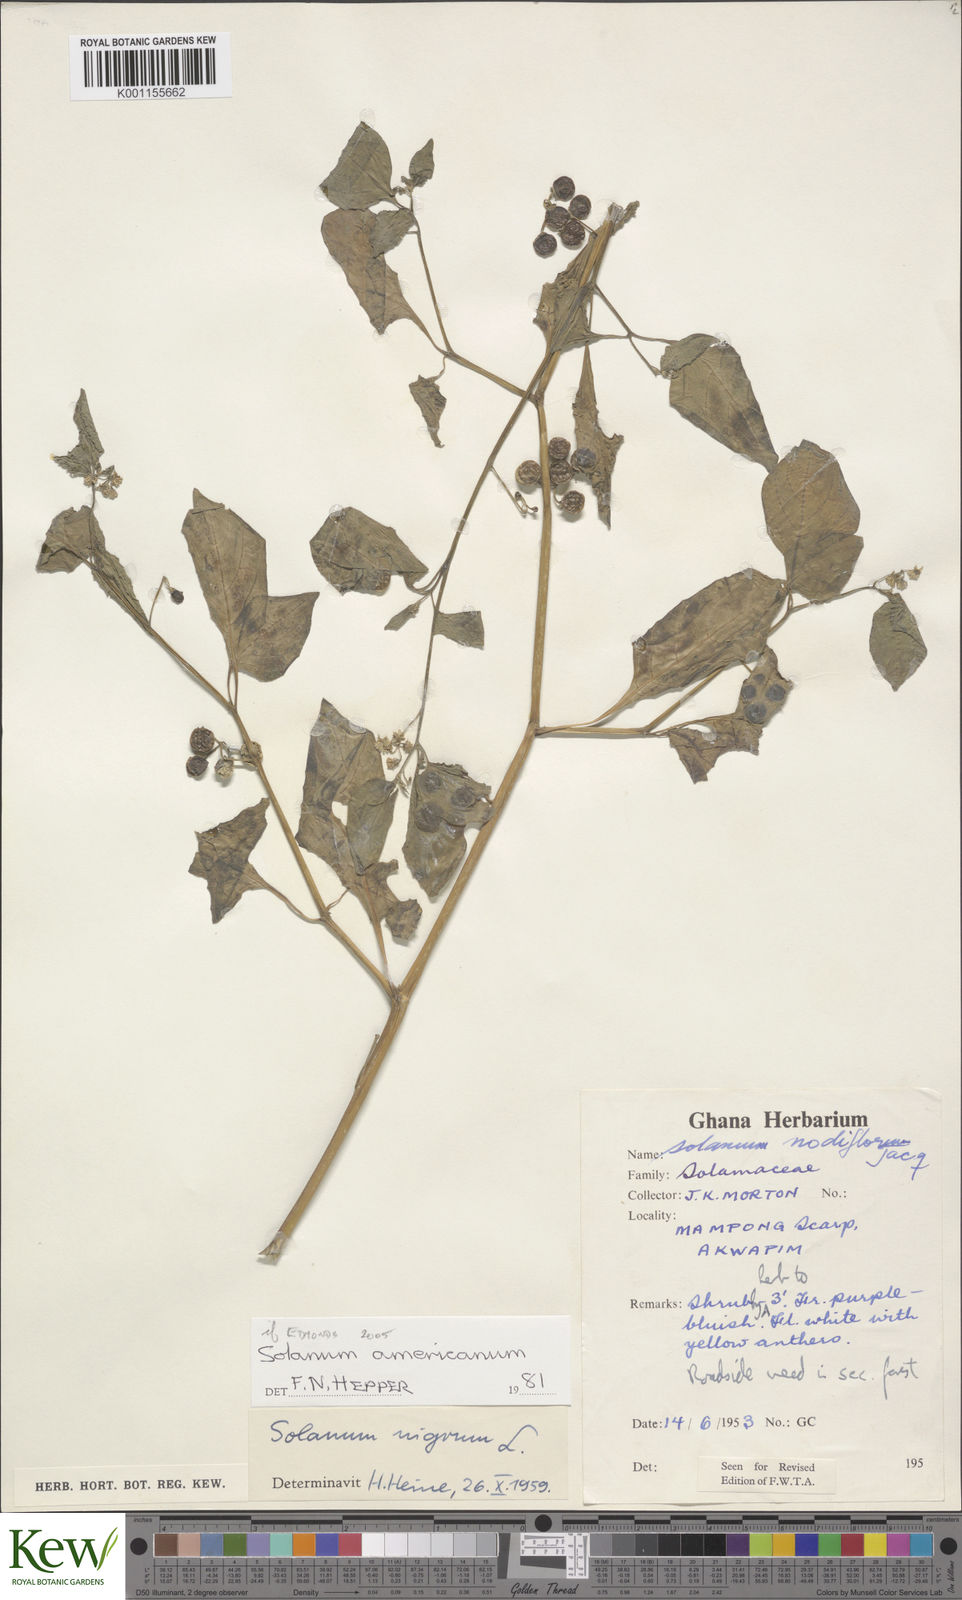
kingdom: Plantae
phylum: Tracheophyta
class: Magnoliopsida
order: Solanales
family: Solanaceae
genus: Solanum
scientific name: Solanum scabrum
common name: Garden-huckleberry
